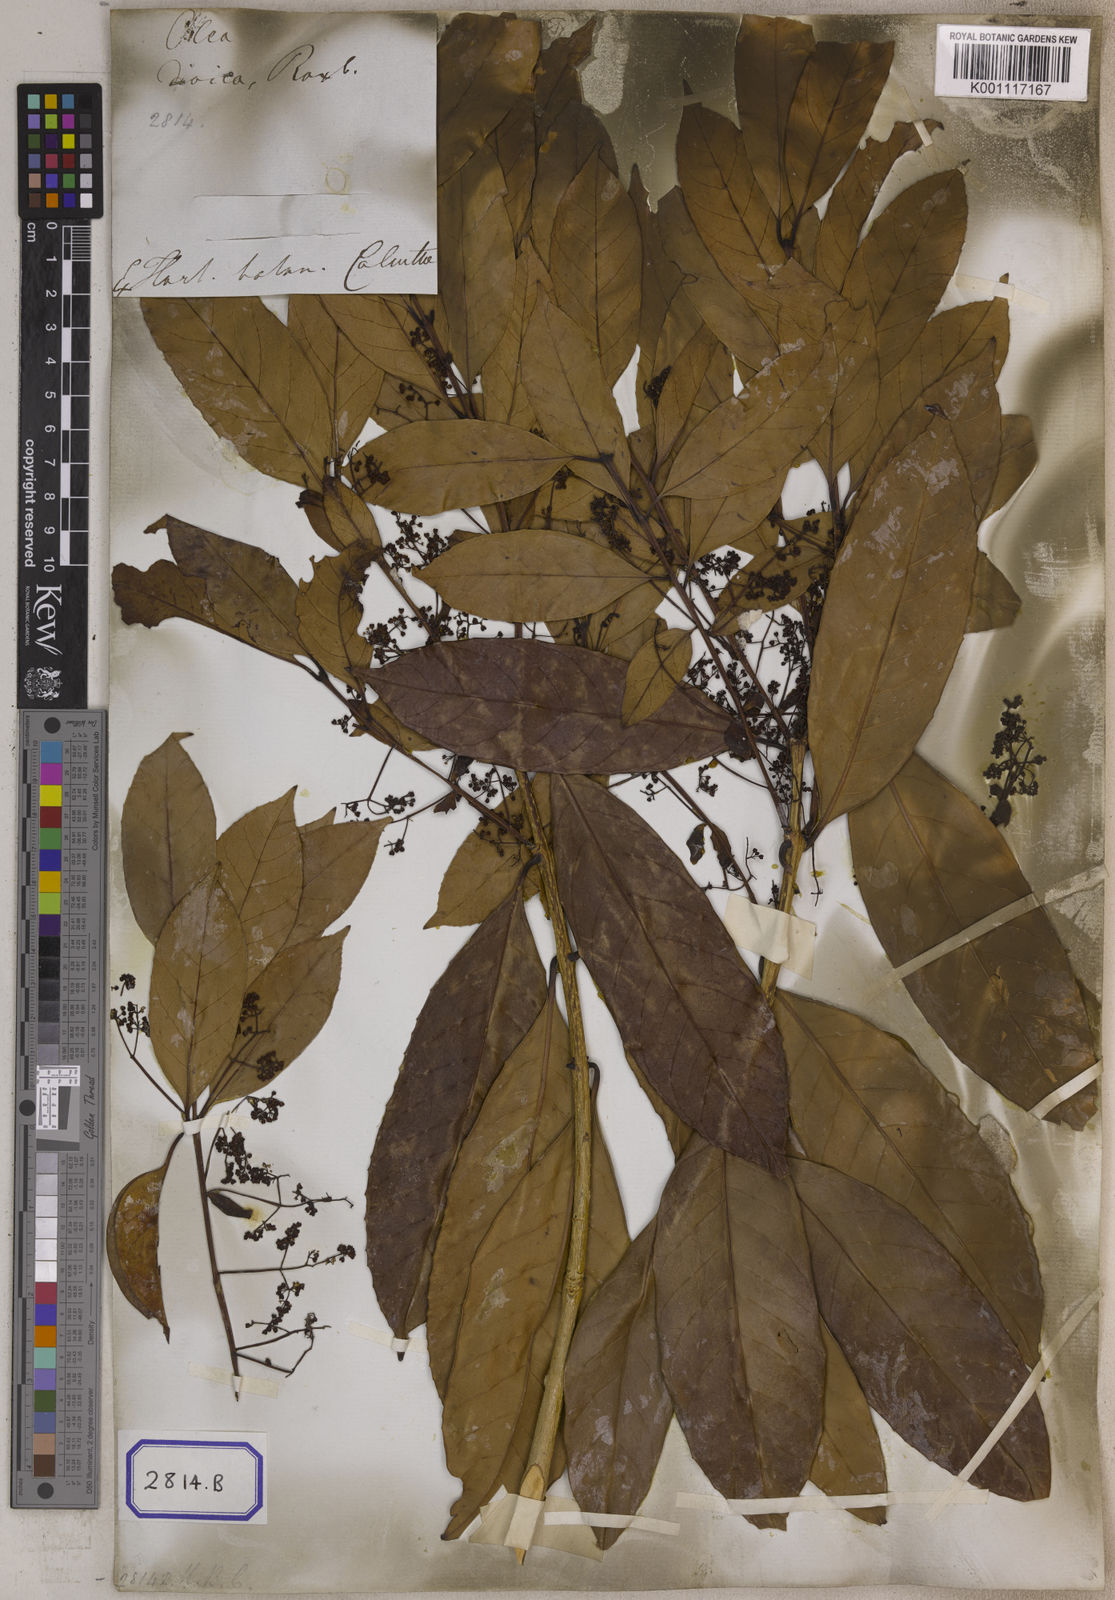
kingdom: Plantae
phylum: Tracheophyta
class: Magnoliopsida
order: Lamiales
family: Oleaceae
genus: Tetrapilus
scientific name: Tetrapilus dioicus
